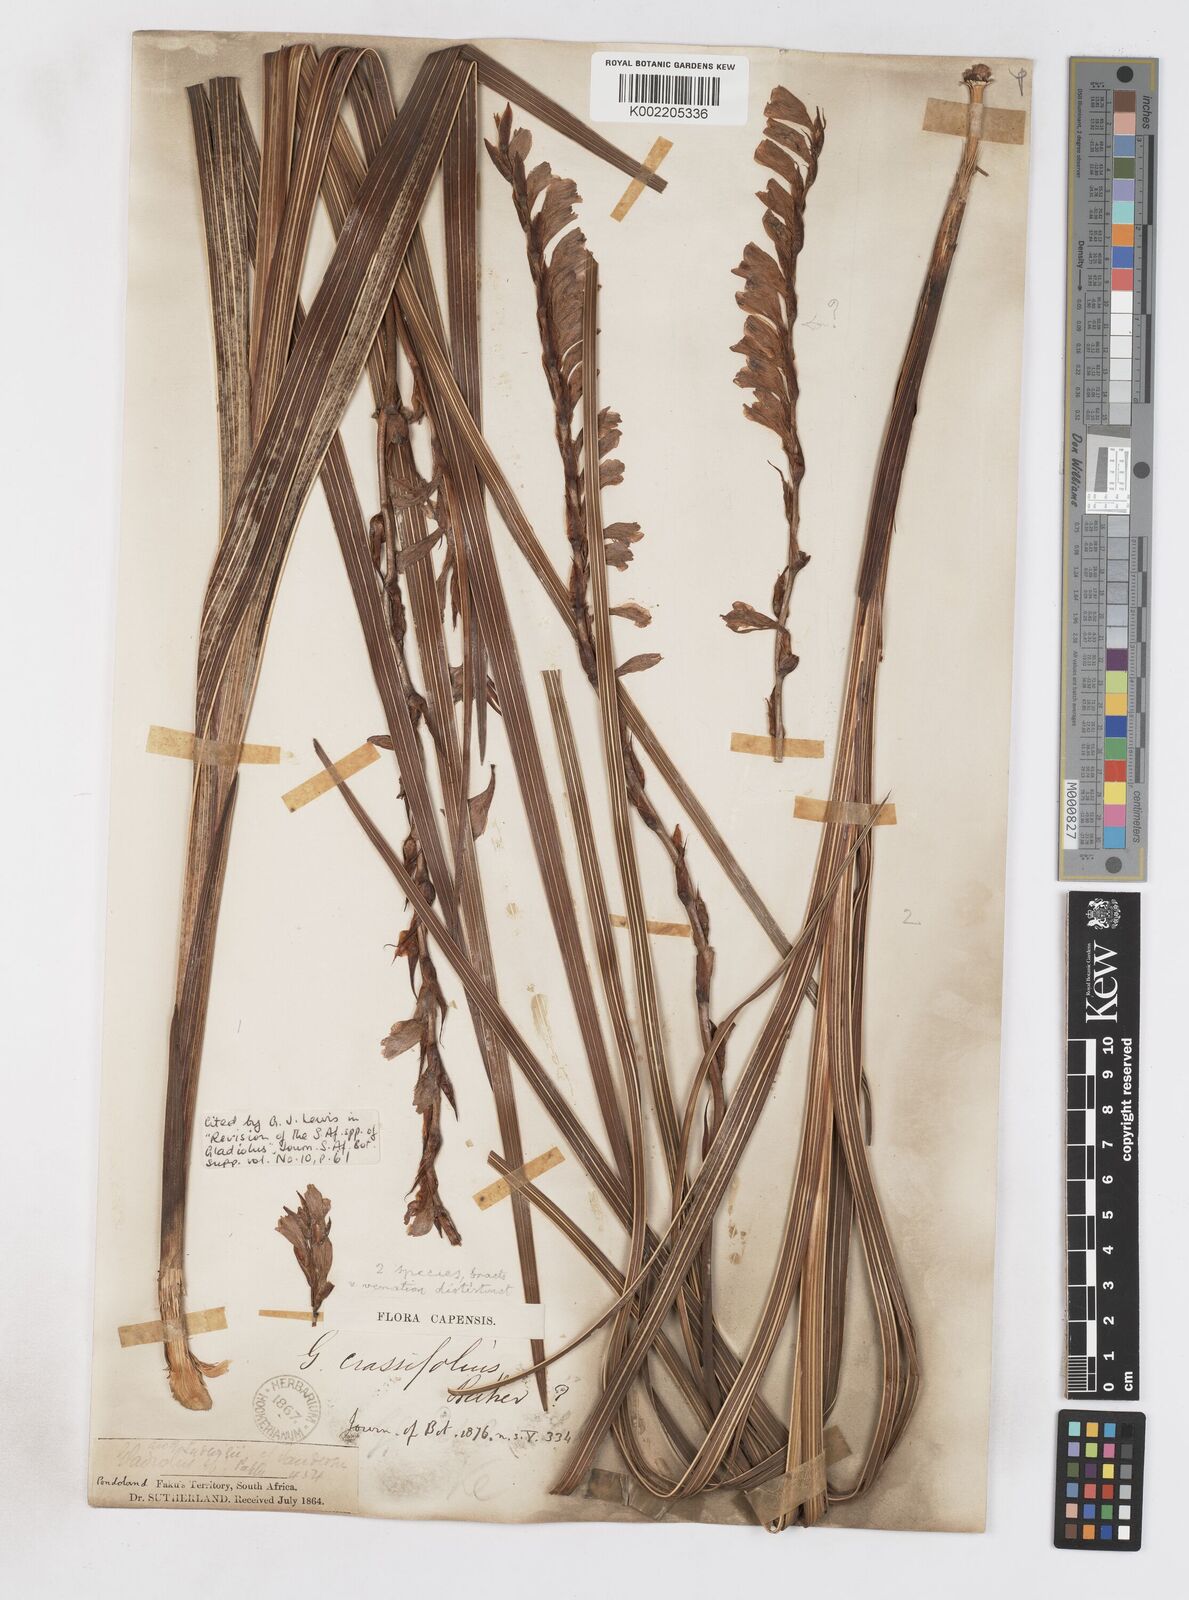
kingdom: Plantae
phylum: Tracheophyta
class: Liliopsida
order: Asparagales
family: Iridaceae
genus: Gladiolus
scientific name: Gladiolus crassifolius
